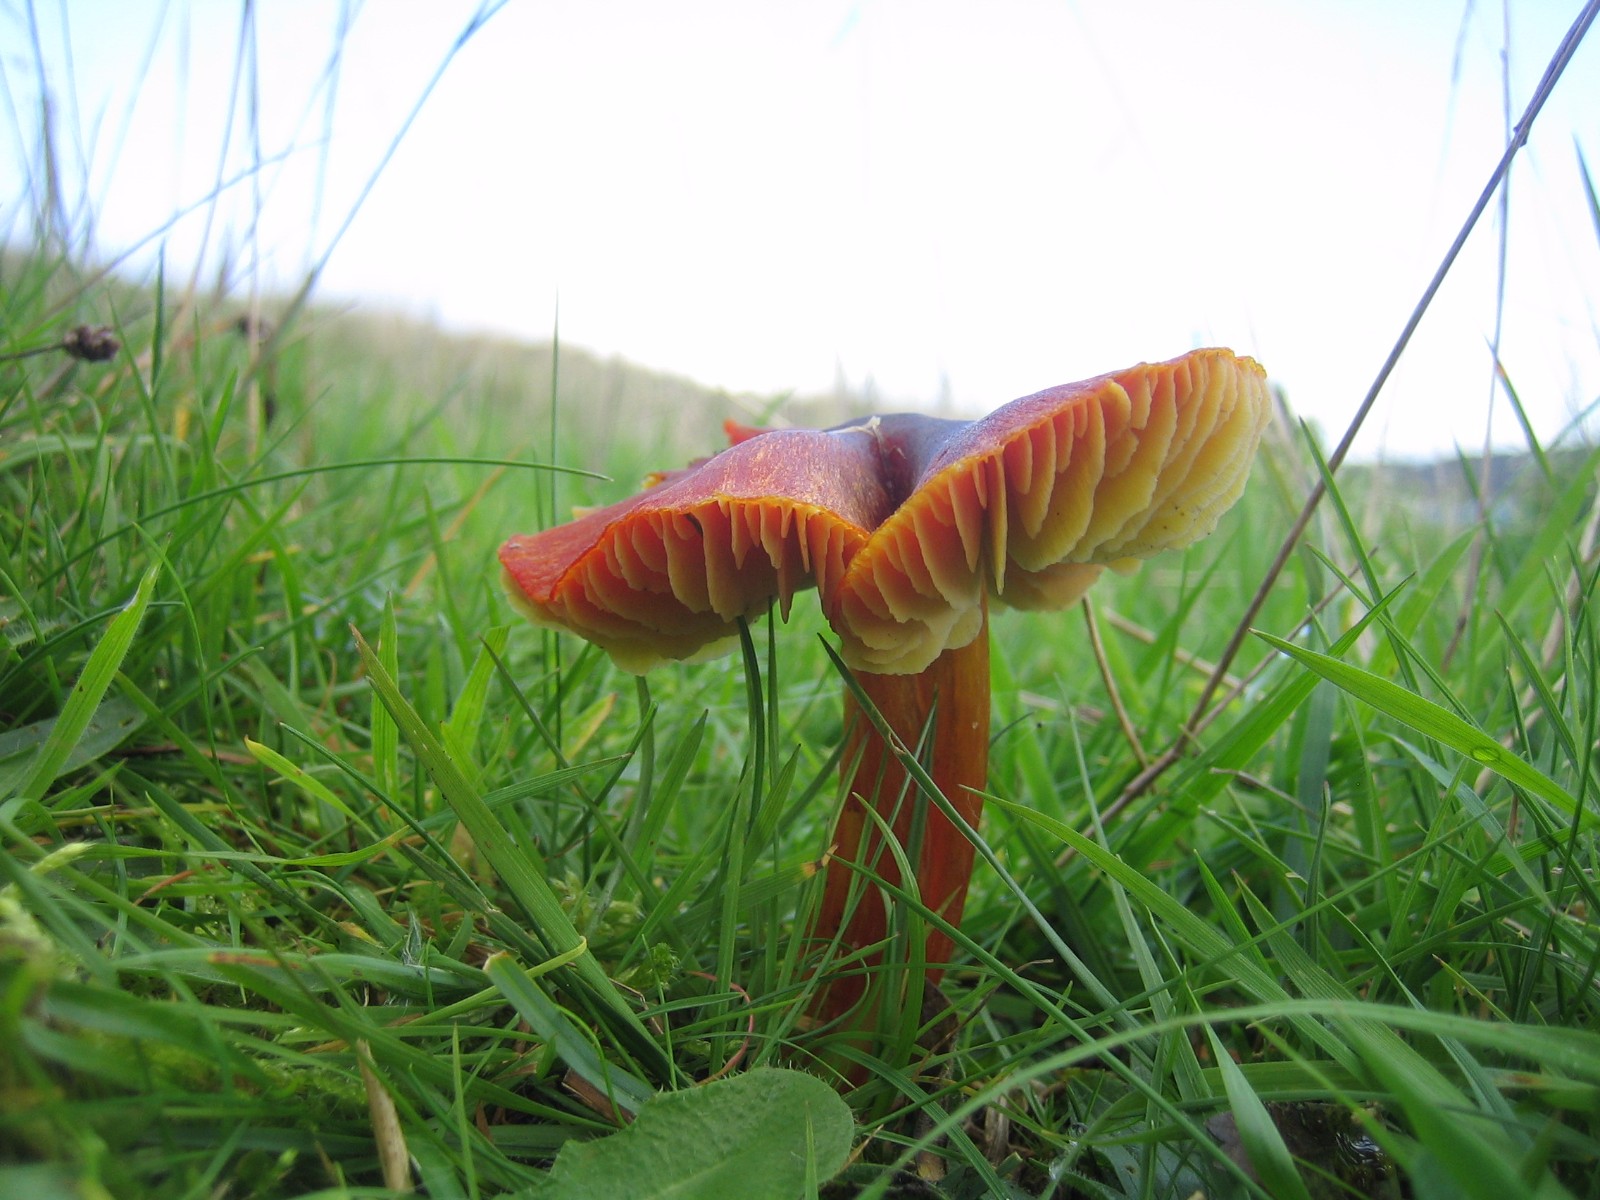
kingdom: Fungi
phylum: Basidiomycota
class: Agaricomycetes
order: Agaricales
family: Hygrophoraceae
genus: Hygrocybe
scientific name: Hygrocybe conica
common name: kegle-vokshat
